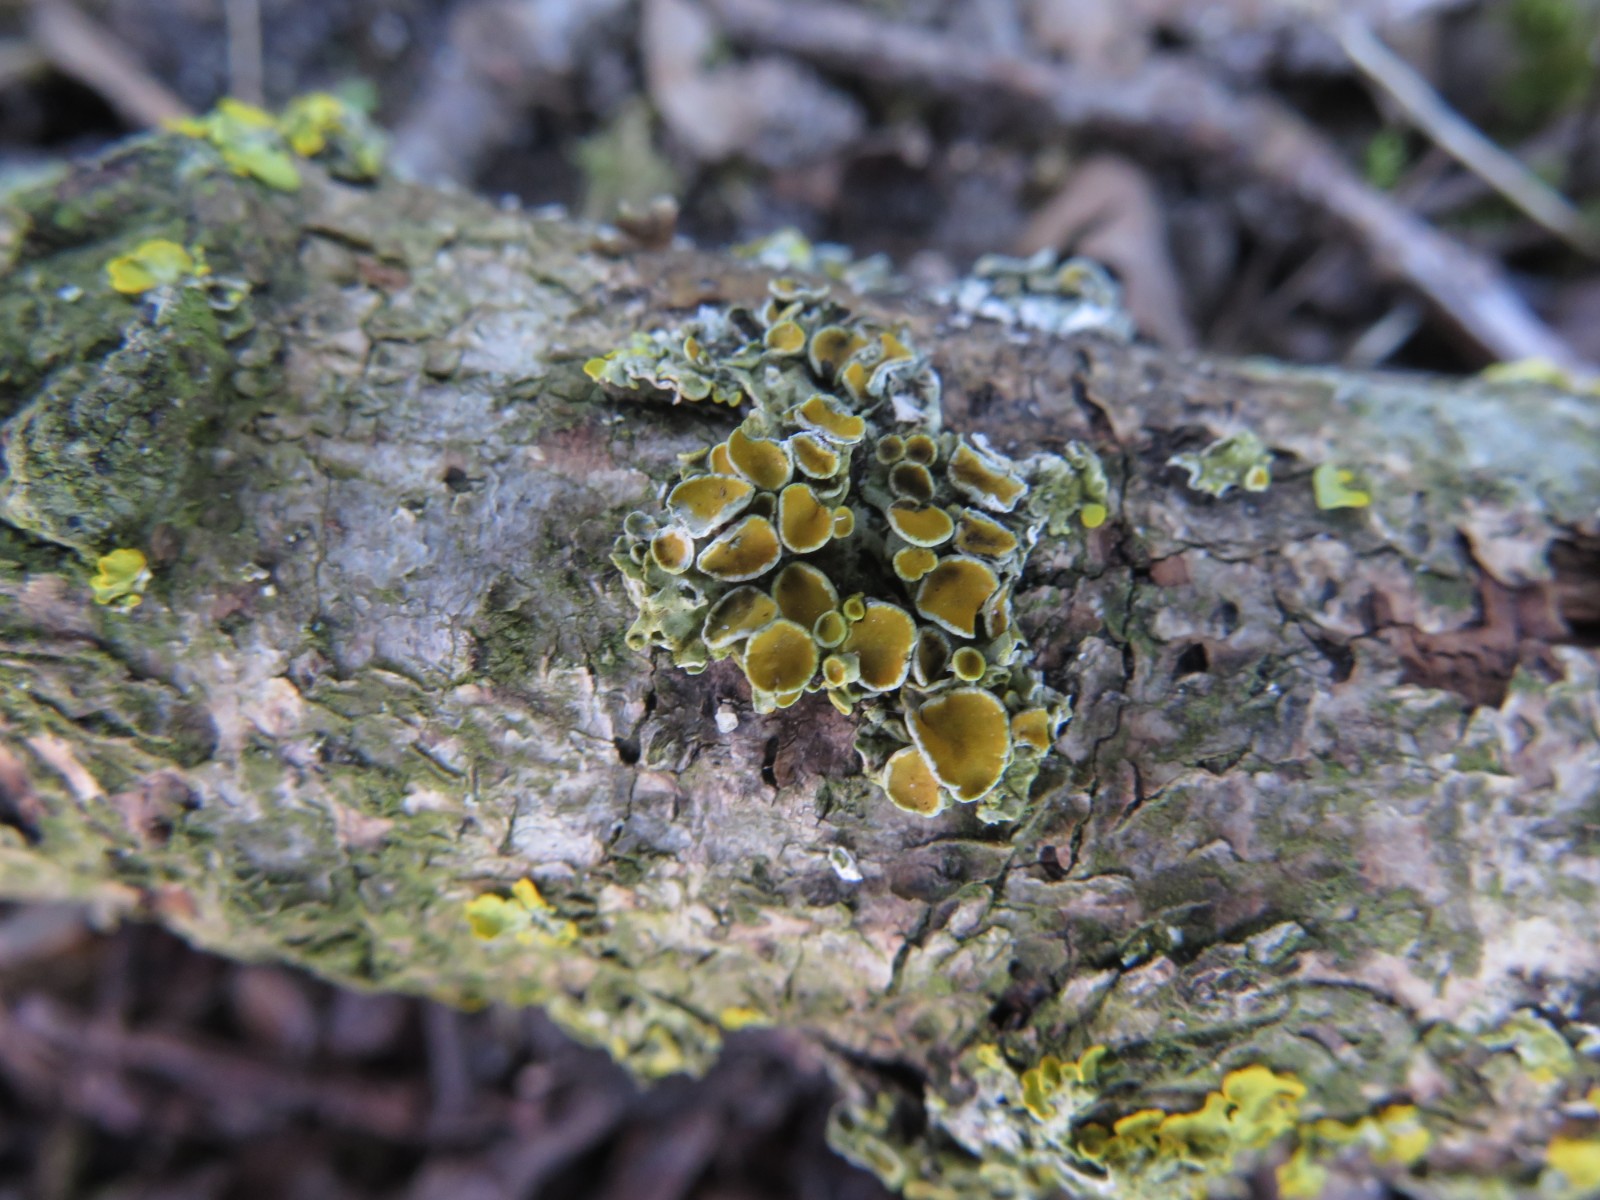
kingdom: Fungi
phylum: Ascomycota
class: Lecanoromycetes
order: Teloschistales
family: Teloschistaceae
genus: Polycauliona
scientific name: Polycauliona polycarpa
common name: mangefrugtet orangelav
